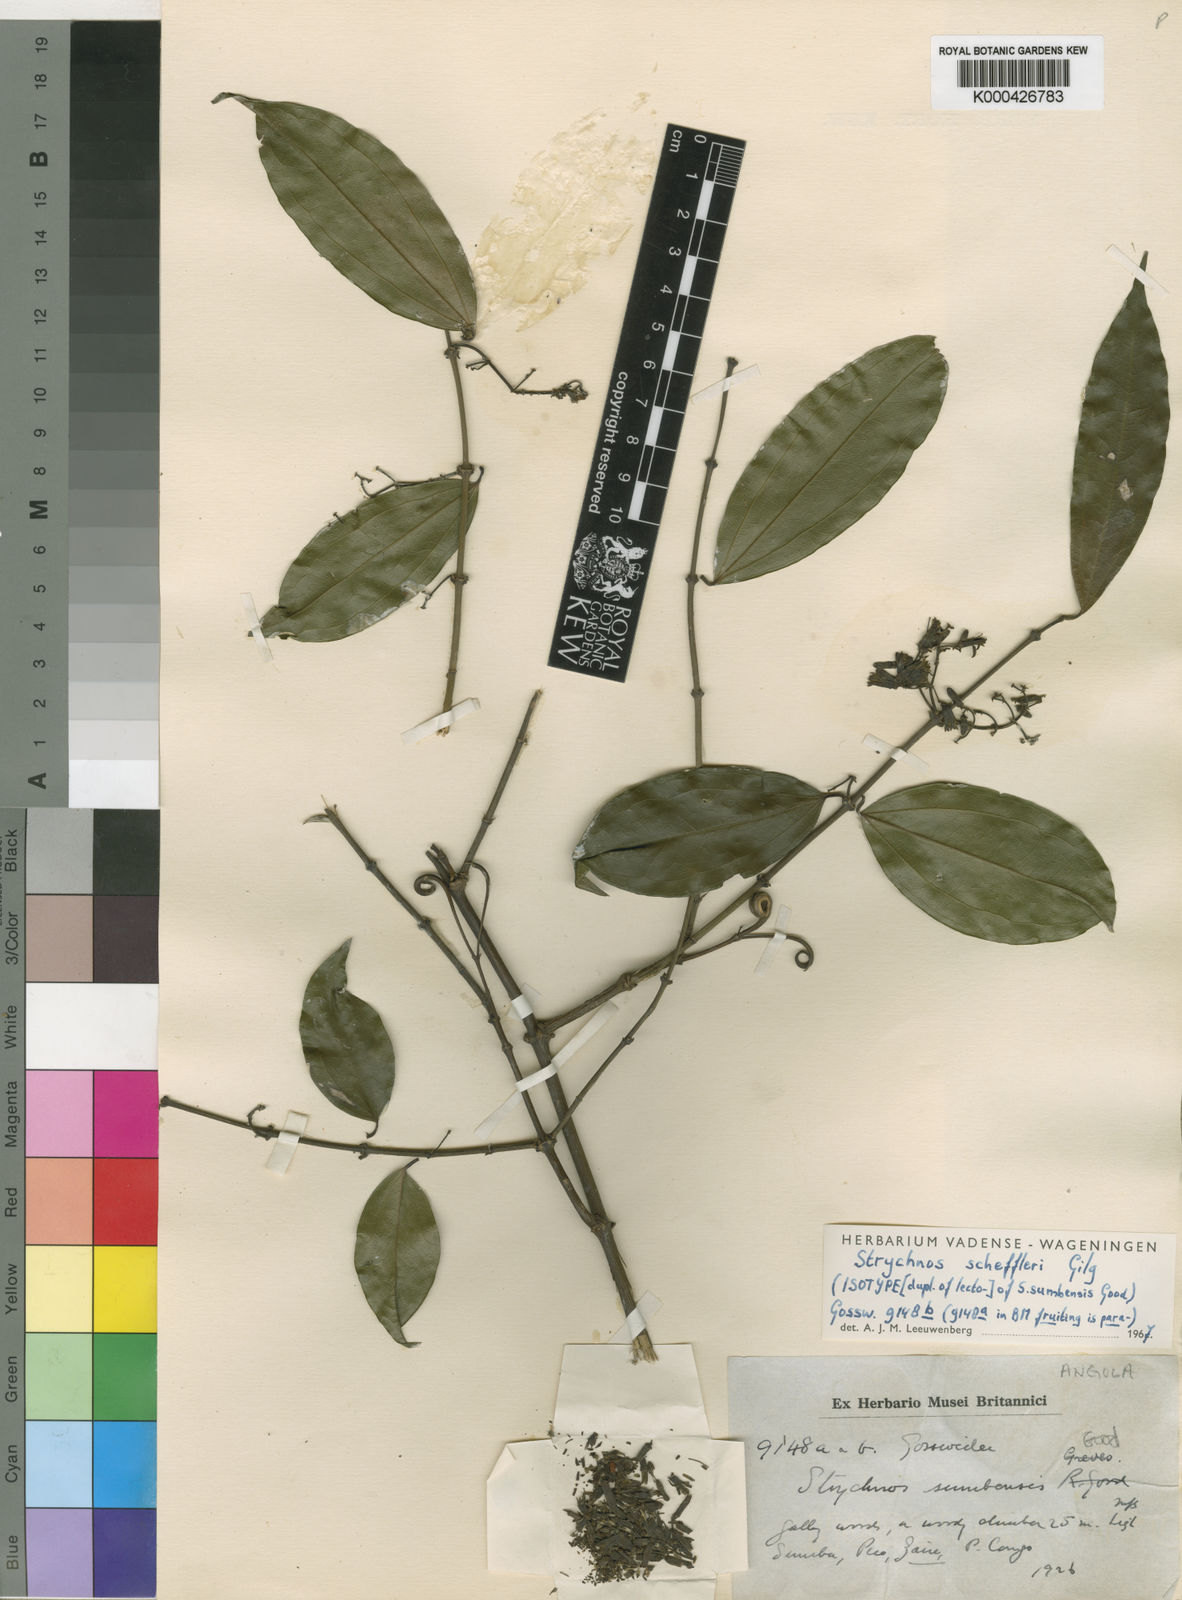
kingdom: Plantae
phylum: Tracheophyta
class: Magnoliopsida
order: Gentianales
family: Loganiaceae
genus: Strychnos
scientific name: Strychnos scheffleri
